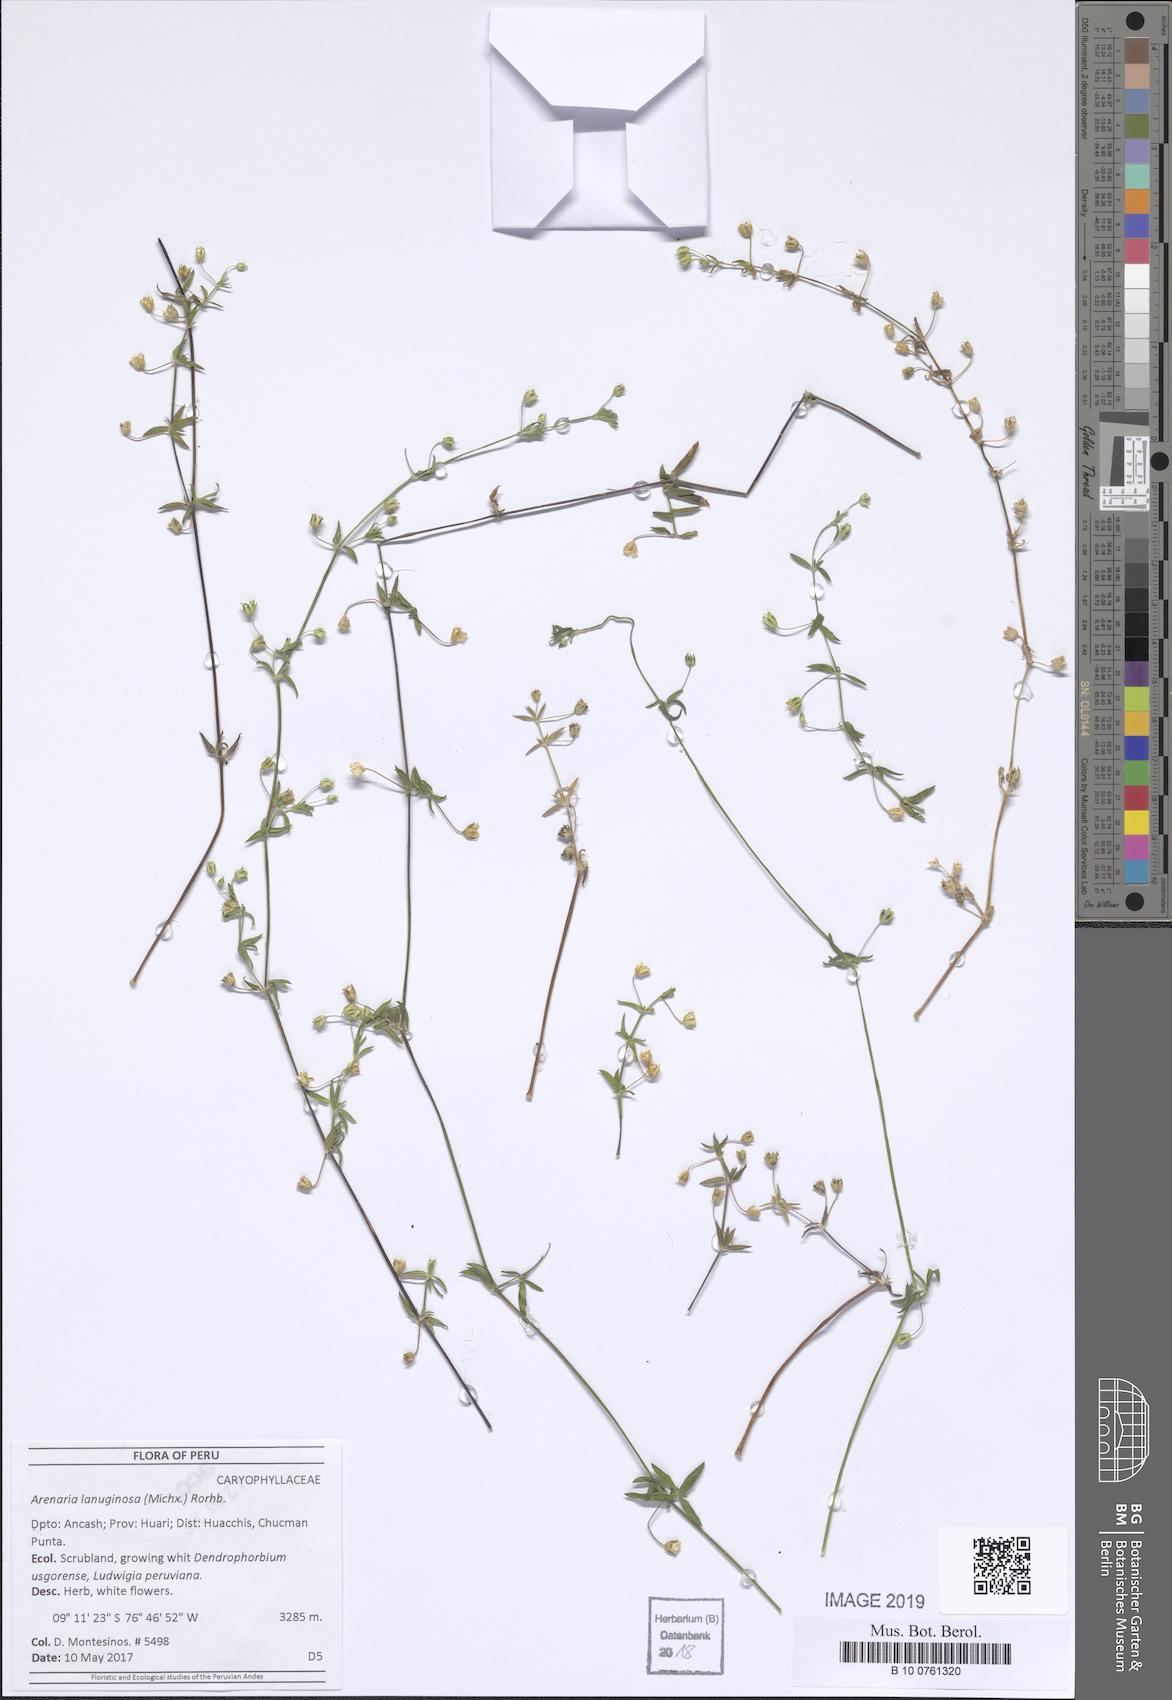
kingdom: Plantae
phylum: Tracheophyta
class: Magnoliopsida
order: Caryophyllales
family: Caryophyllaceae
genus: Arenaria
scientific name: Arenaria lanuginosa
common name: Spread sandwort
